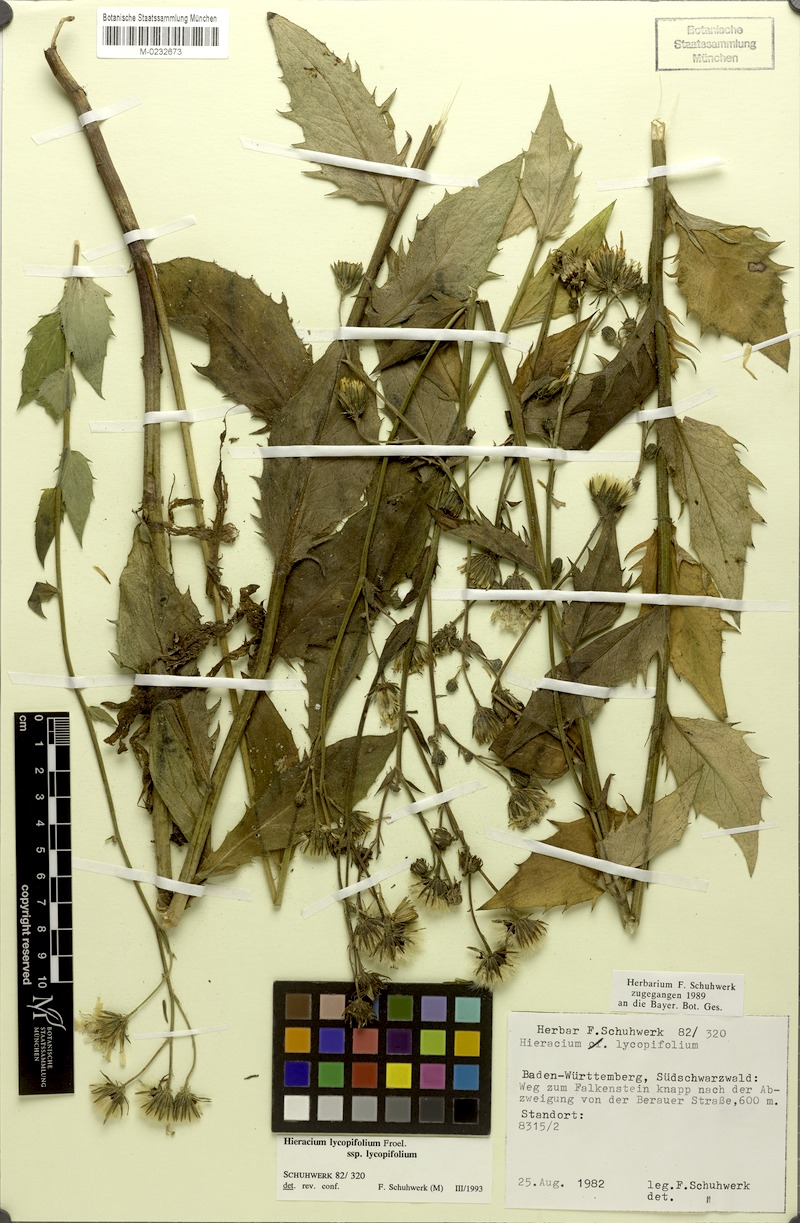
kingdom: Plantae
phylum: Tracheophyta
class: Magnoliopsida
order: Asterales
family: Asteraceae
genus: Hieracium
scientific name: Hieracium lycopifolium
